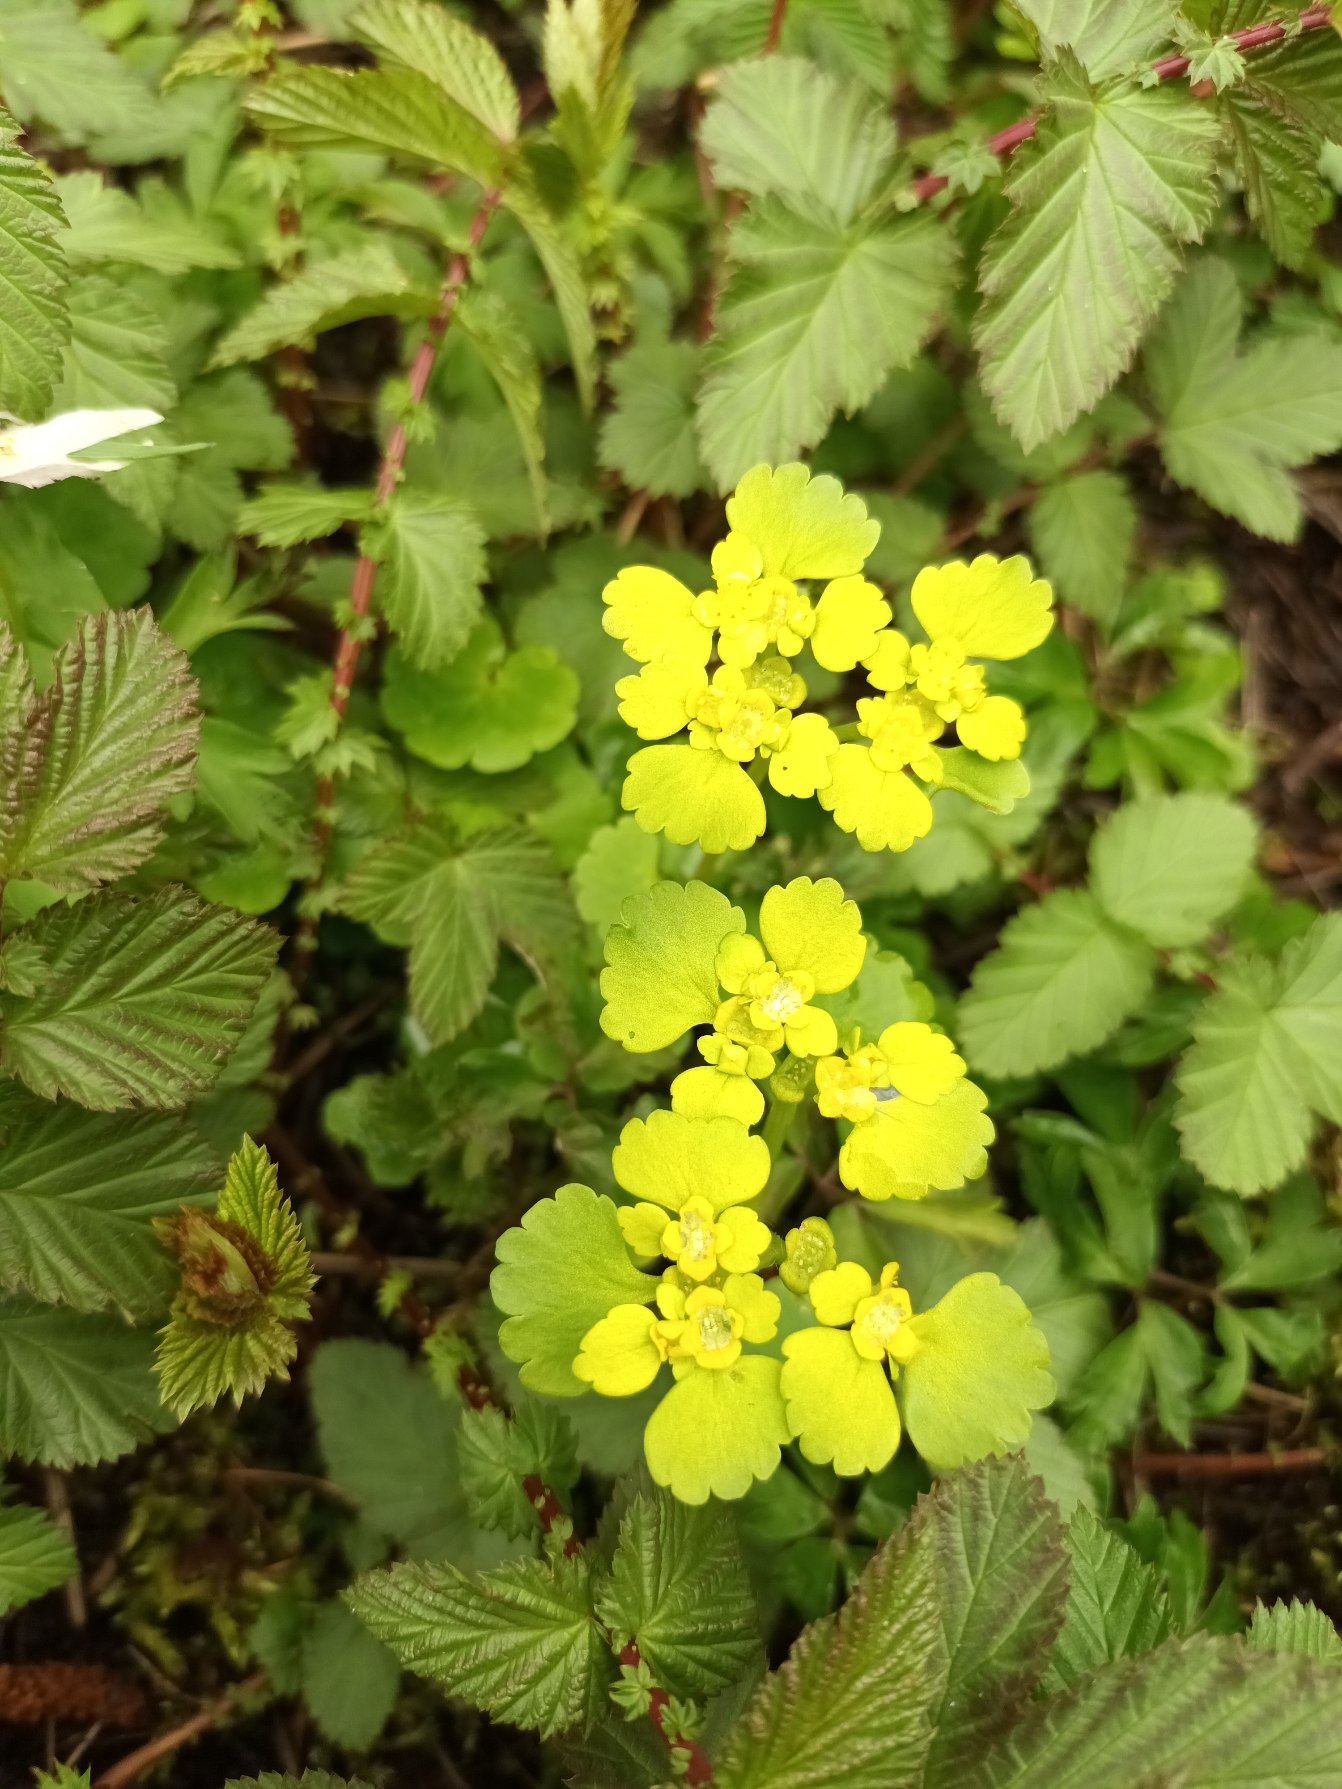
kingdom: Plantae
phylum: Tracheophyta
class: Magnoliopsida
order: Saxifragales
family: Saxifragaceae
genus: Chrysosplenium
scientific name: Chrysosplenium alternifolium
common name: Almindelig milturt
